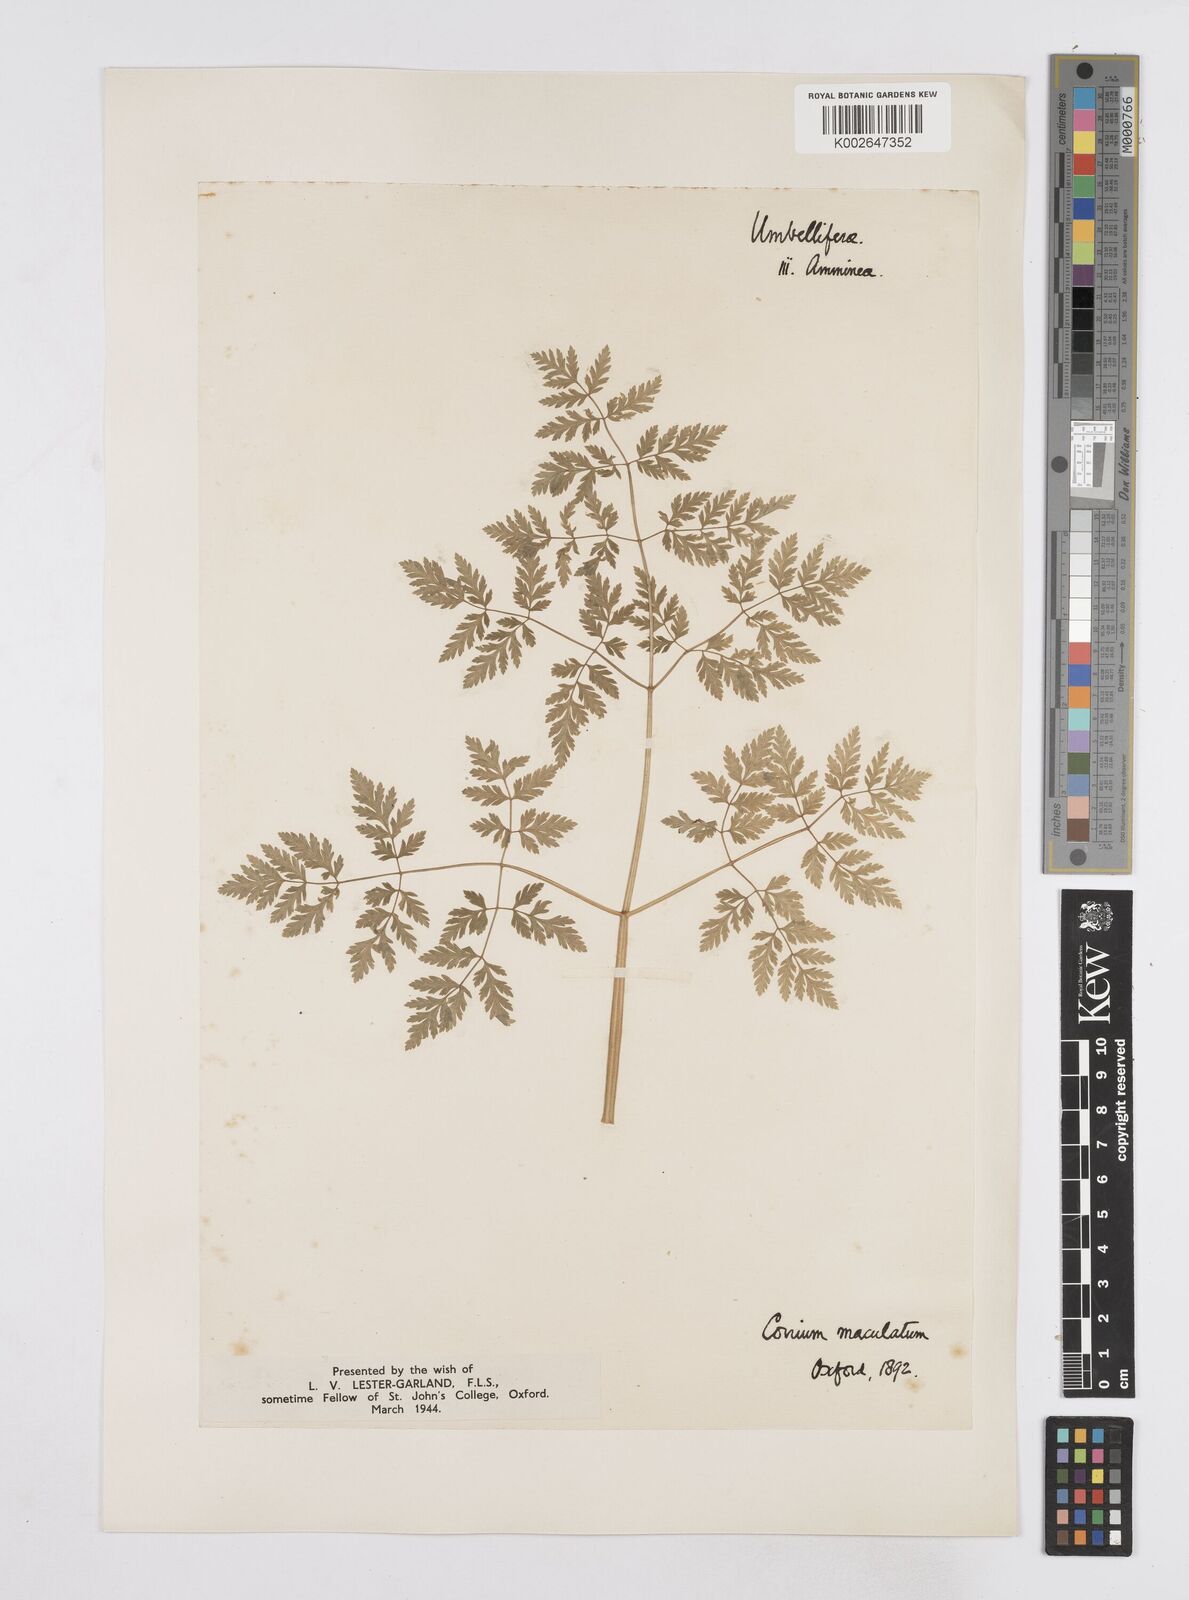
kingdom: Plantae
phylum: Tracheophyta
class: Magnoliopsida
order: Apiales
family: Apiaceae
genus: Conium
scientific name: Conium maculatum
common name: Hemlock
